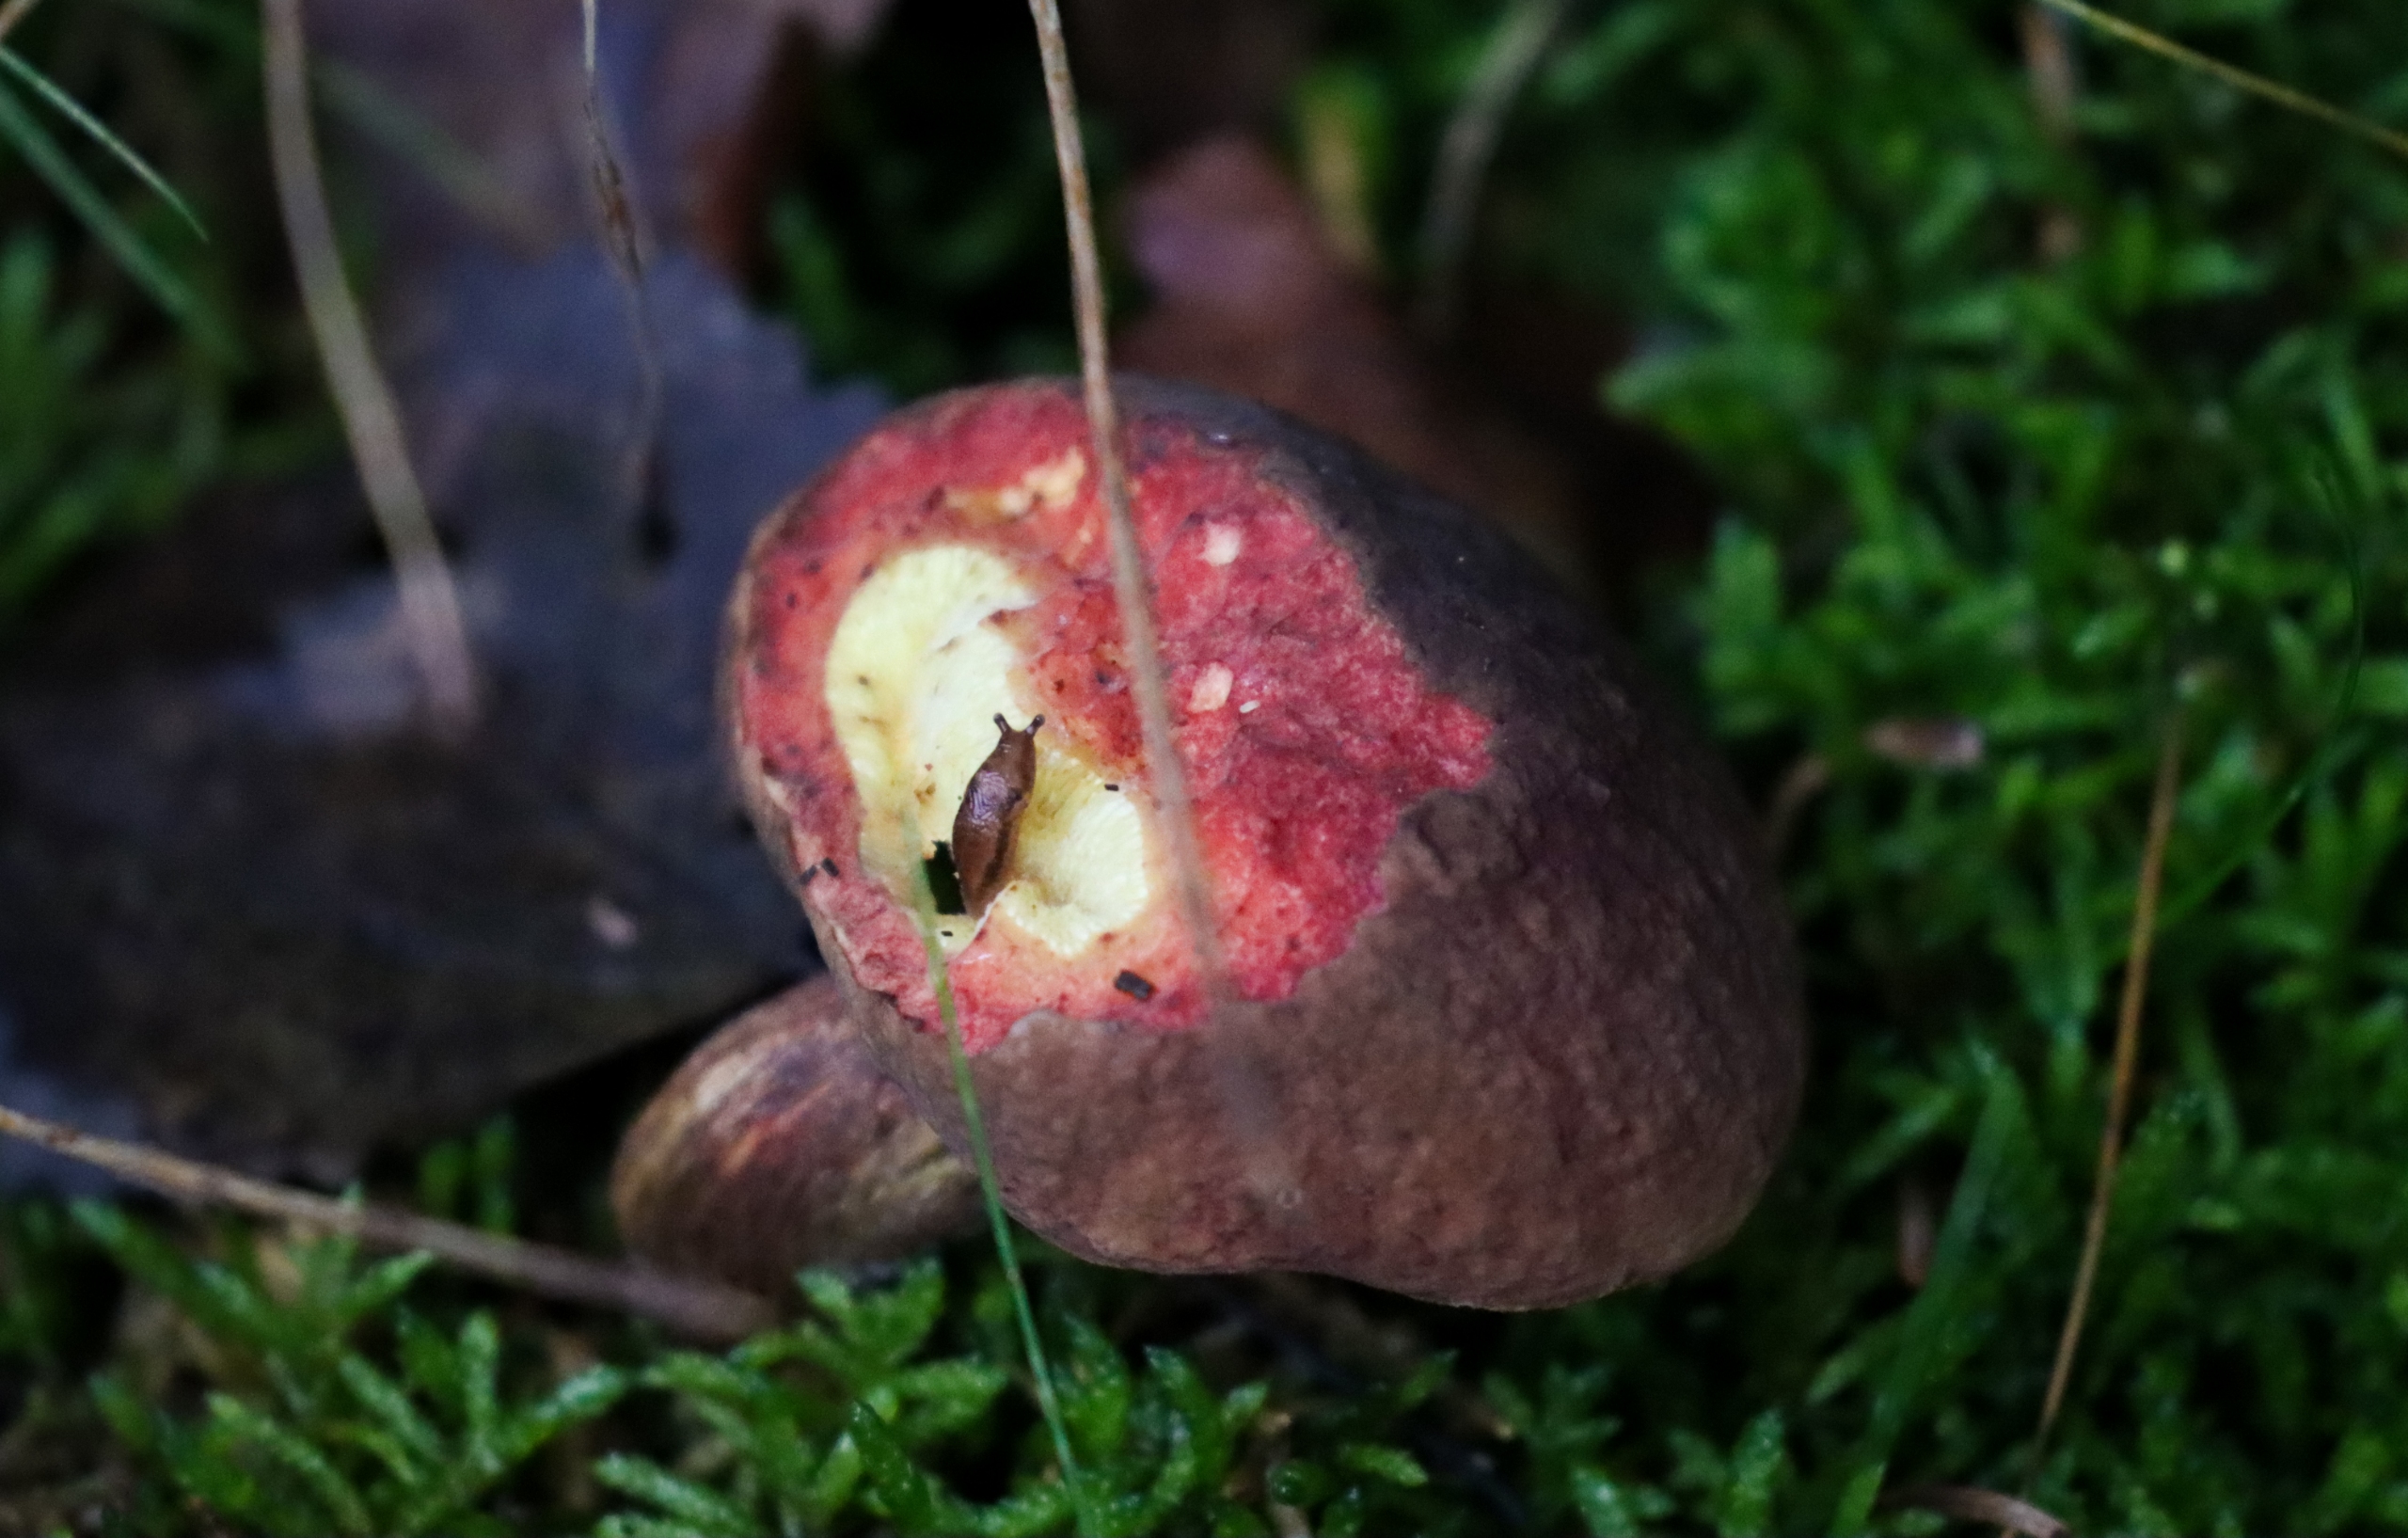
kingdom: Fungi
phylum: Basidiomycota
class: Agaricomycetes
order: Boletales
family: Boletaceae
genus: Xerocomellus
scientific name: Xerocomellus pruinatus
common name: Dugget rørhat
